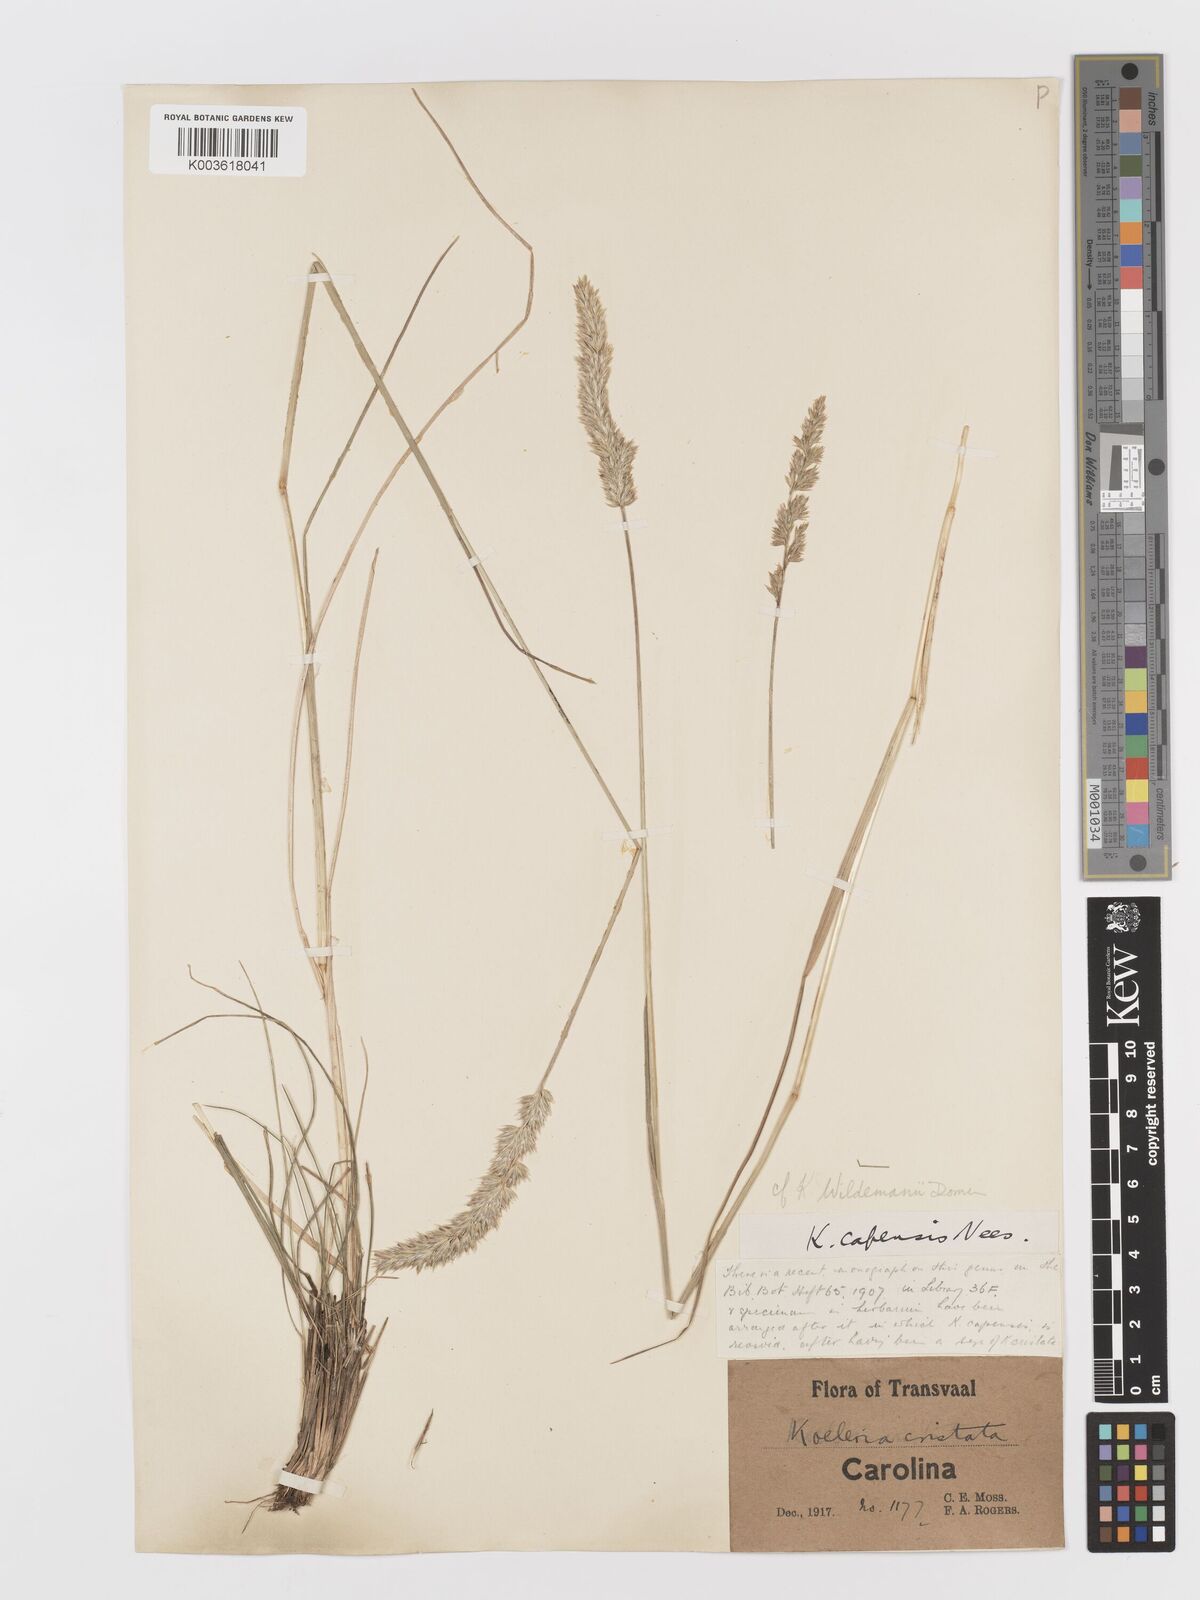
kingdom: Plantae
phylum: Tracheophyta
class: Liliopsida
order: Poales
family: Poaceae
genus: Koeleria
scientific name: Koeleria capensis
